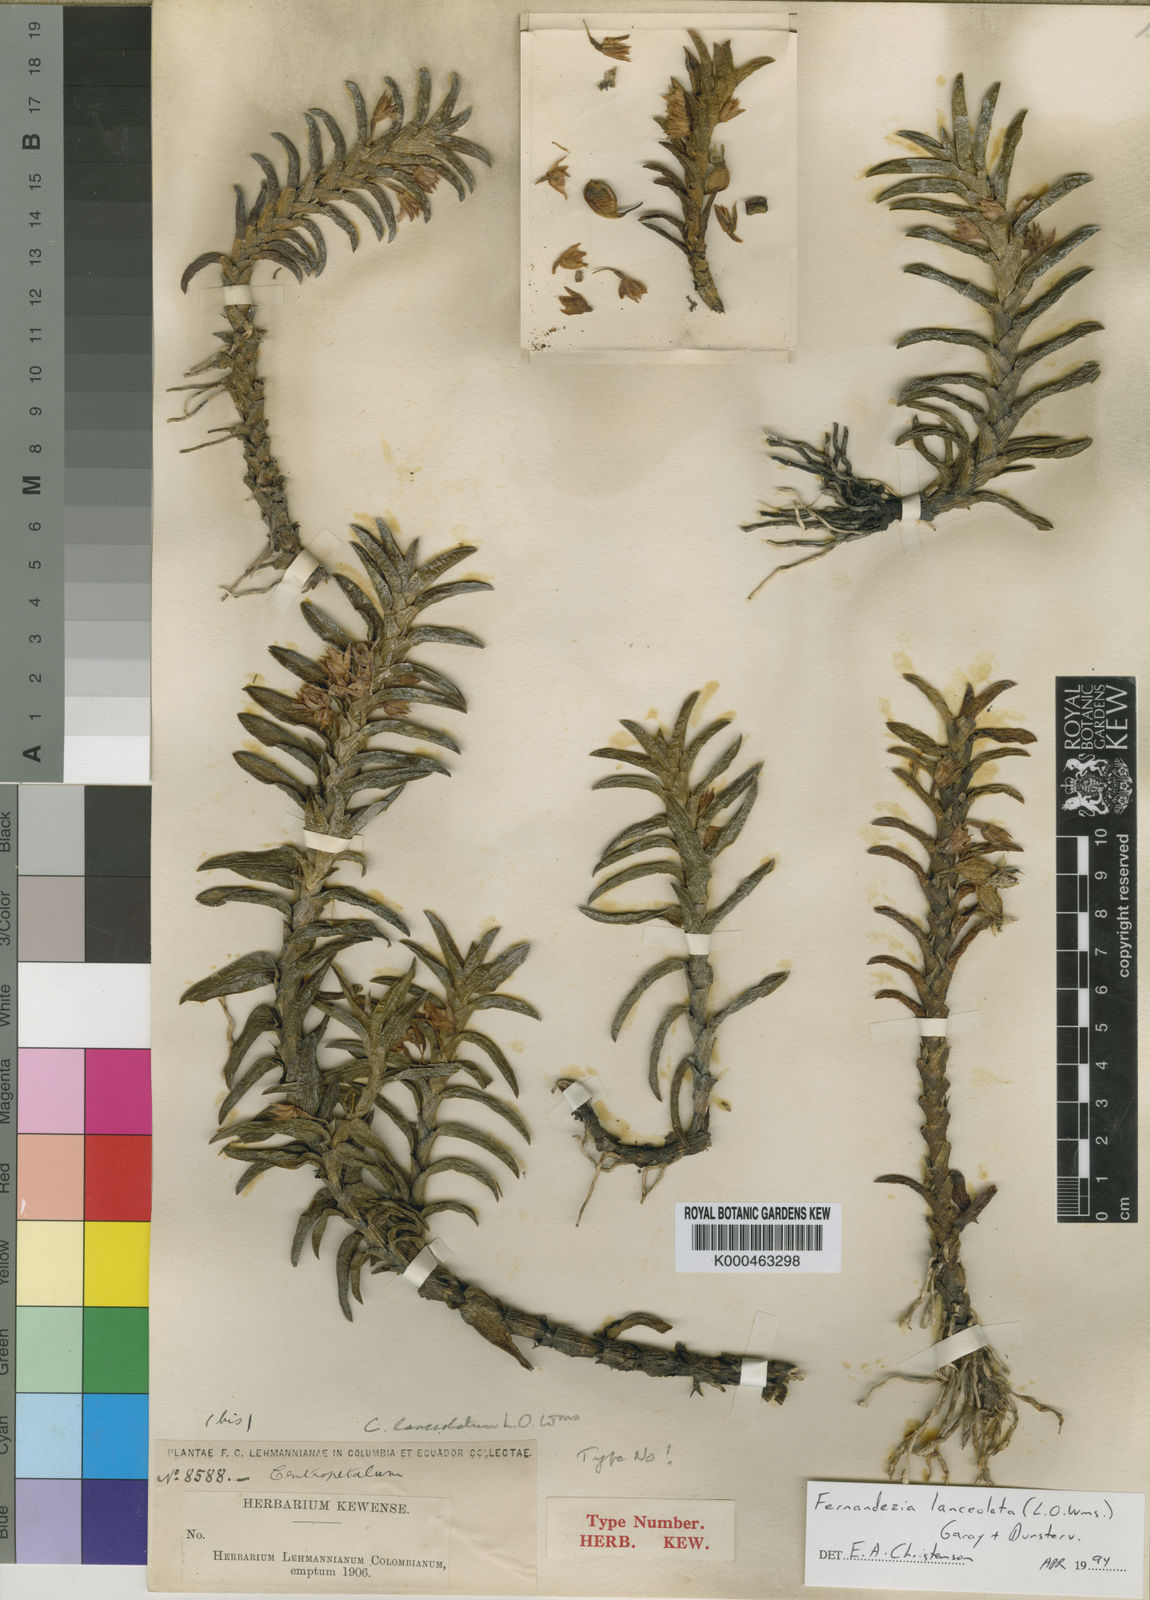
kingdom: Plantae
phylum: Tracheophyta
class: Liliopsida
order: Asparagales
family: Orchidaceae
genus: Fernandezia
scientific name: Fernandezia sanguinea
